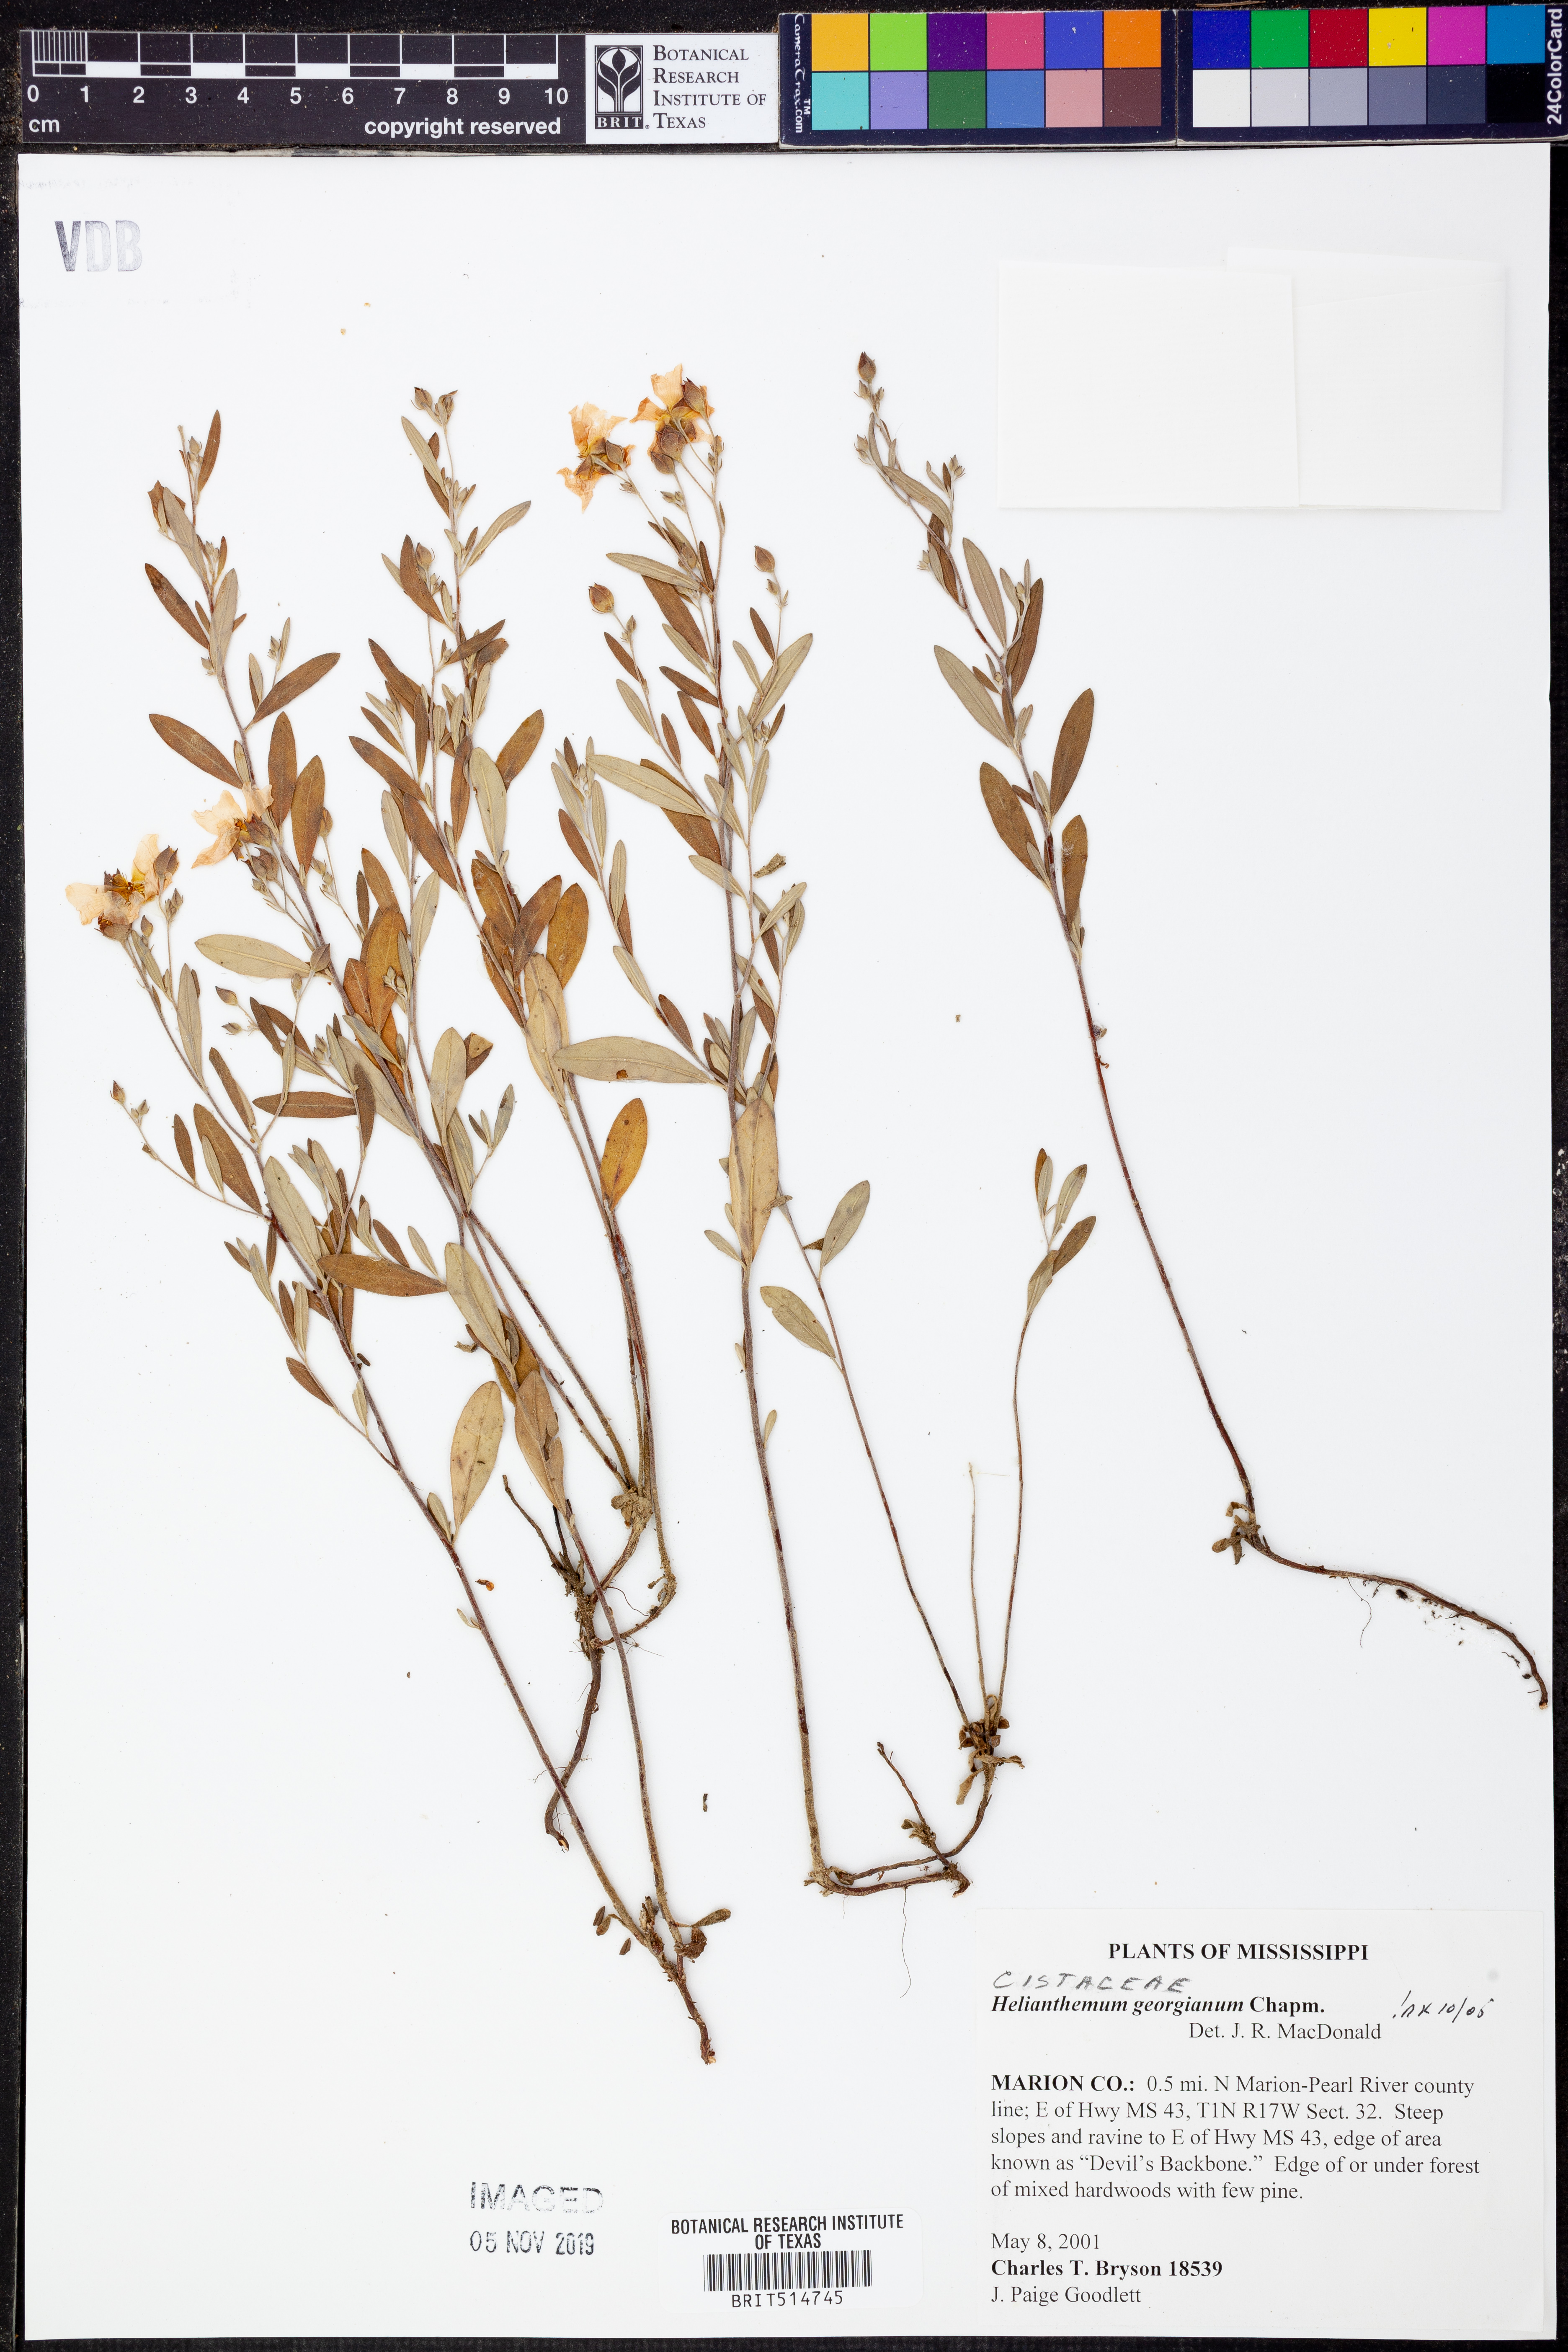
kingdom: Plantae
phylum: Tracheophyta
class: Magnoliopsida
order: Malvales
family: Cistaceae
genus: Crocanthemum
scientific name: Crocanthemum georgianum
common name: Georgia frostweed
